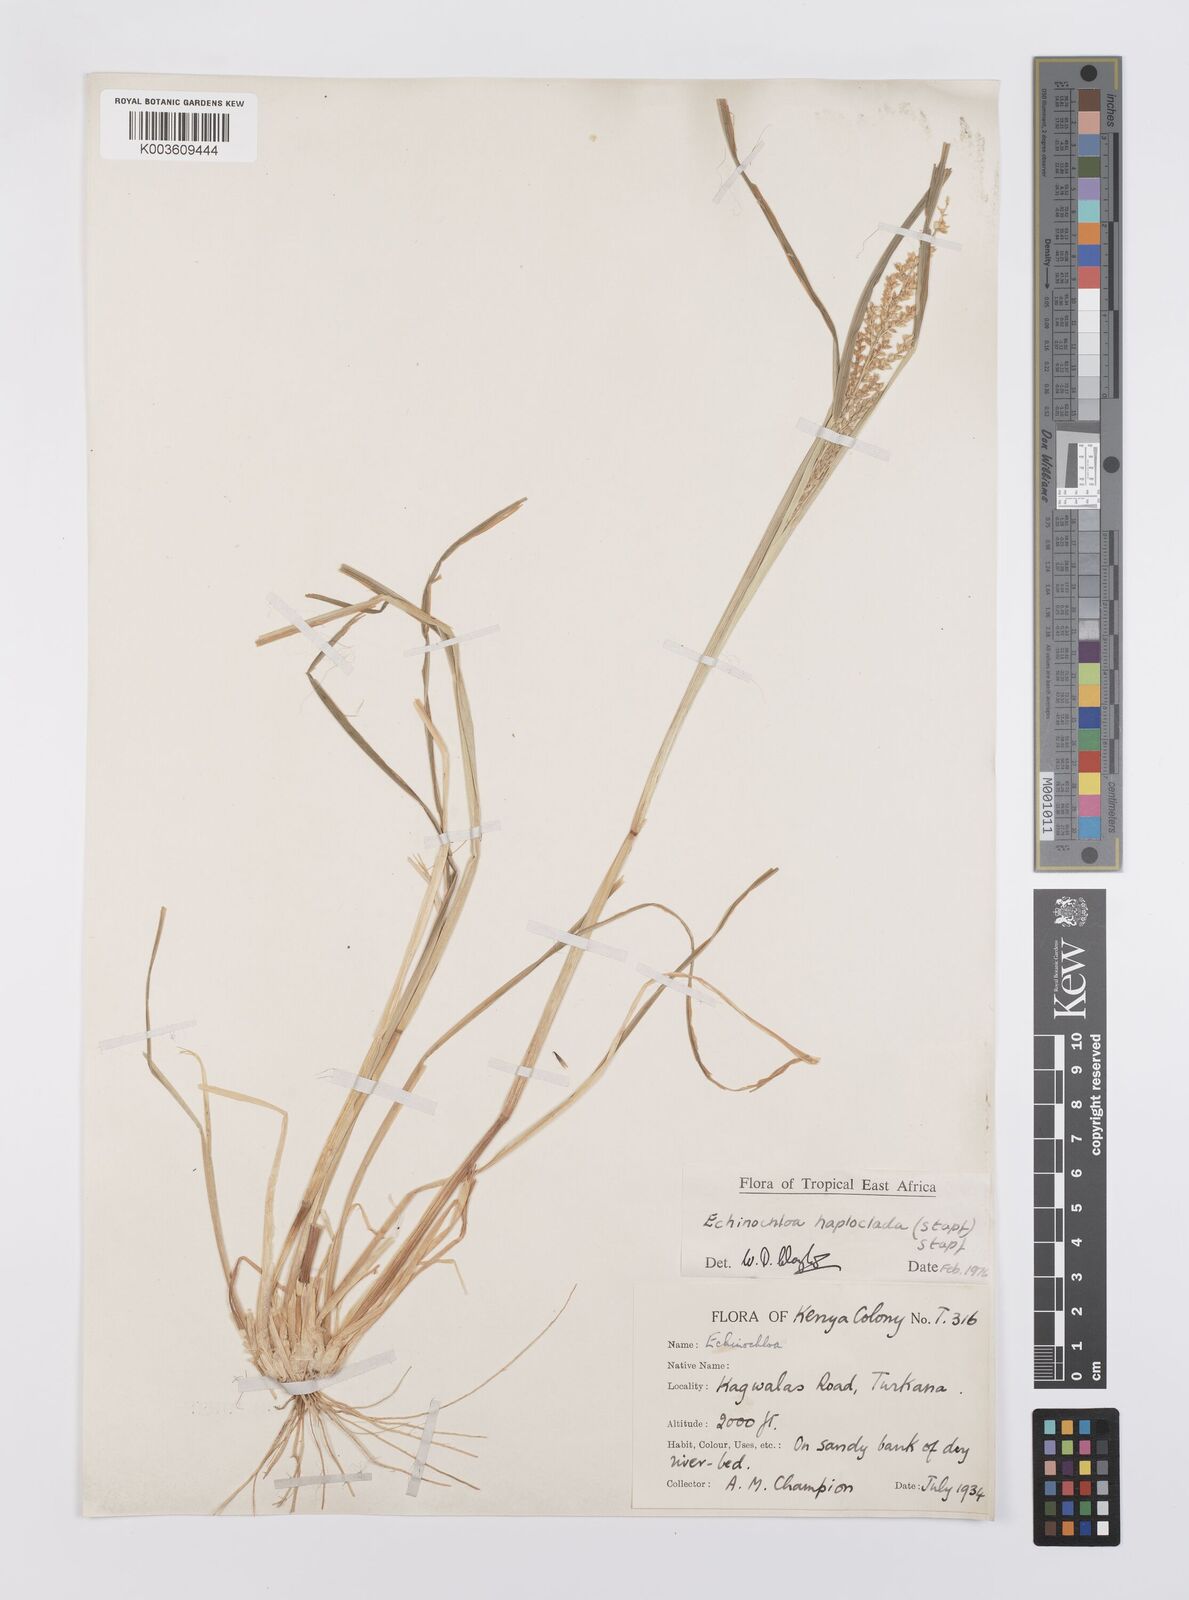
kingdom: Plantae
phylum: Tracheophyta
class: Liliopsida
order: Poales
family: Poaceae
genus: Echinochloa
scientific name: Echinochloa haploclada
